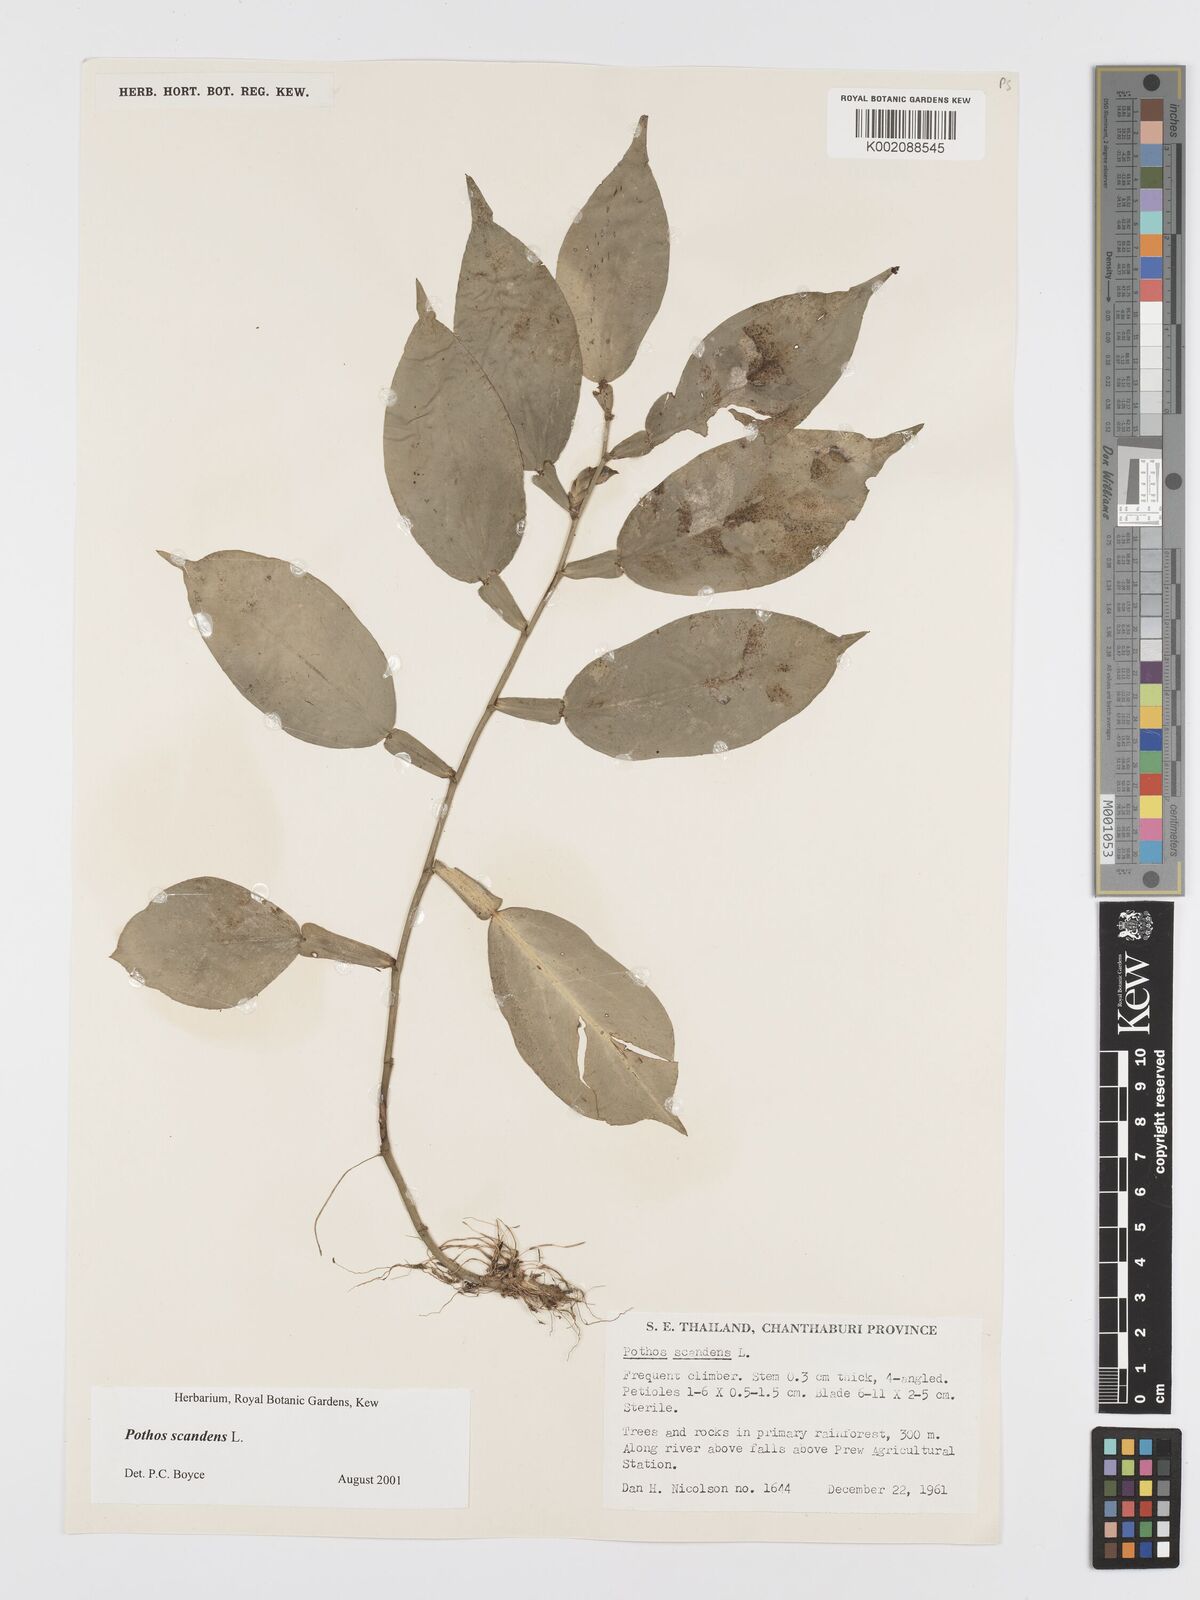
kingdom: Plantae
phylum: Tracheophyta
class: Liliopsida
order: Alismatales
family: Araceae
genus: Pothos
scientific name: Pothos scandens
